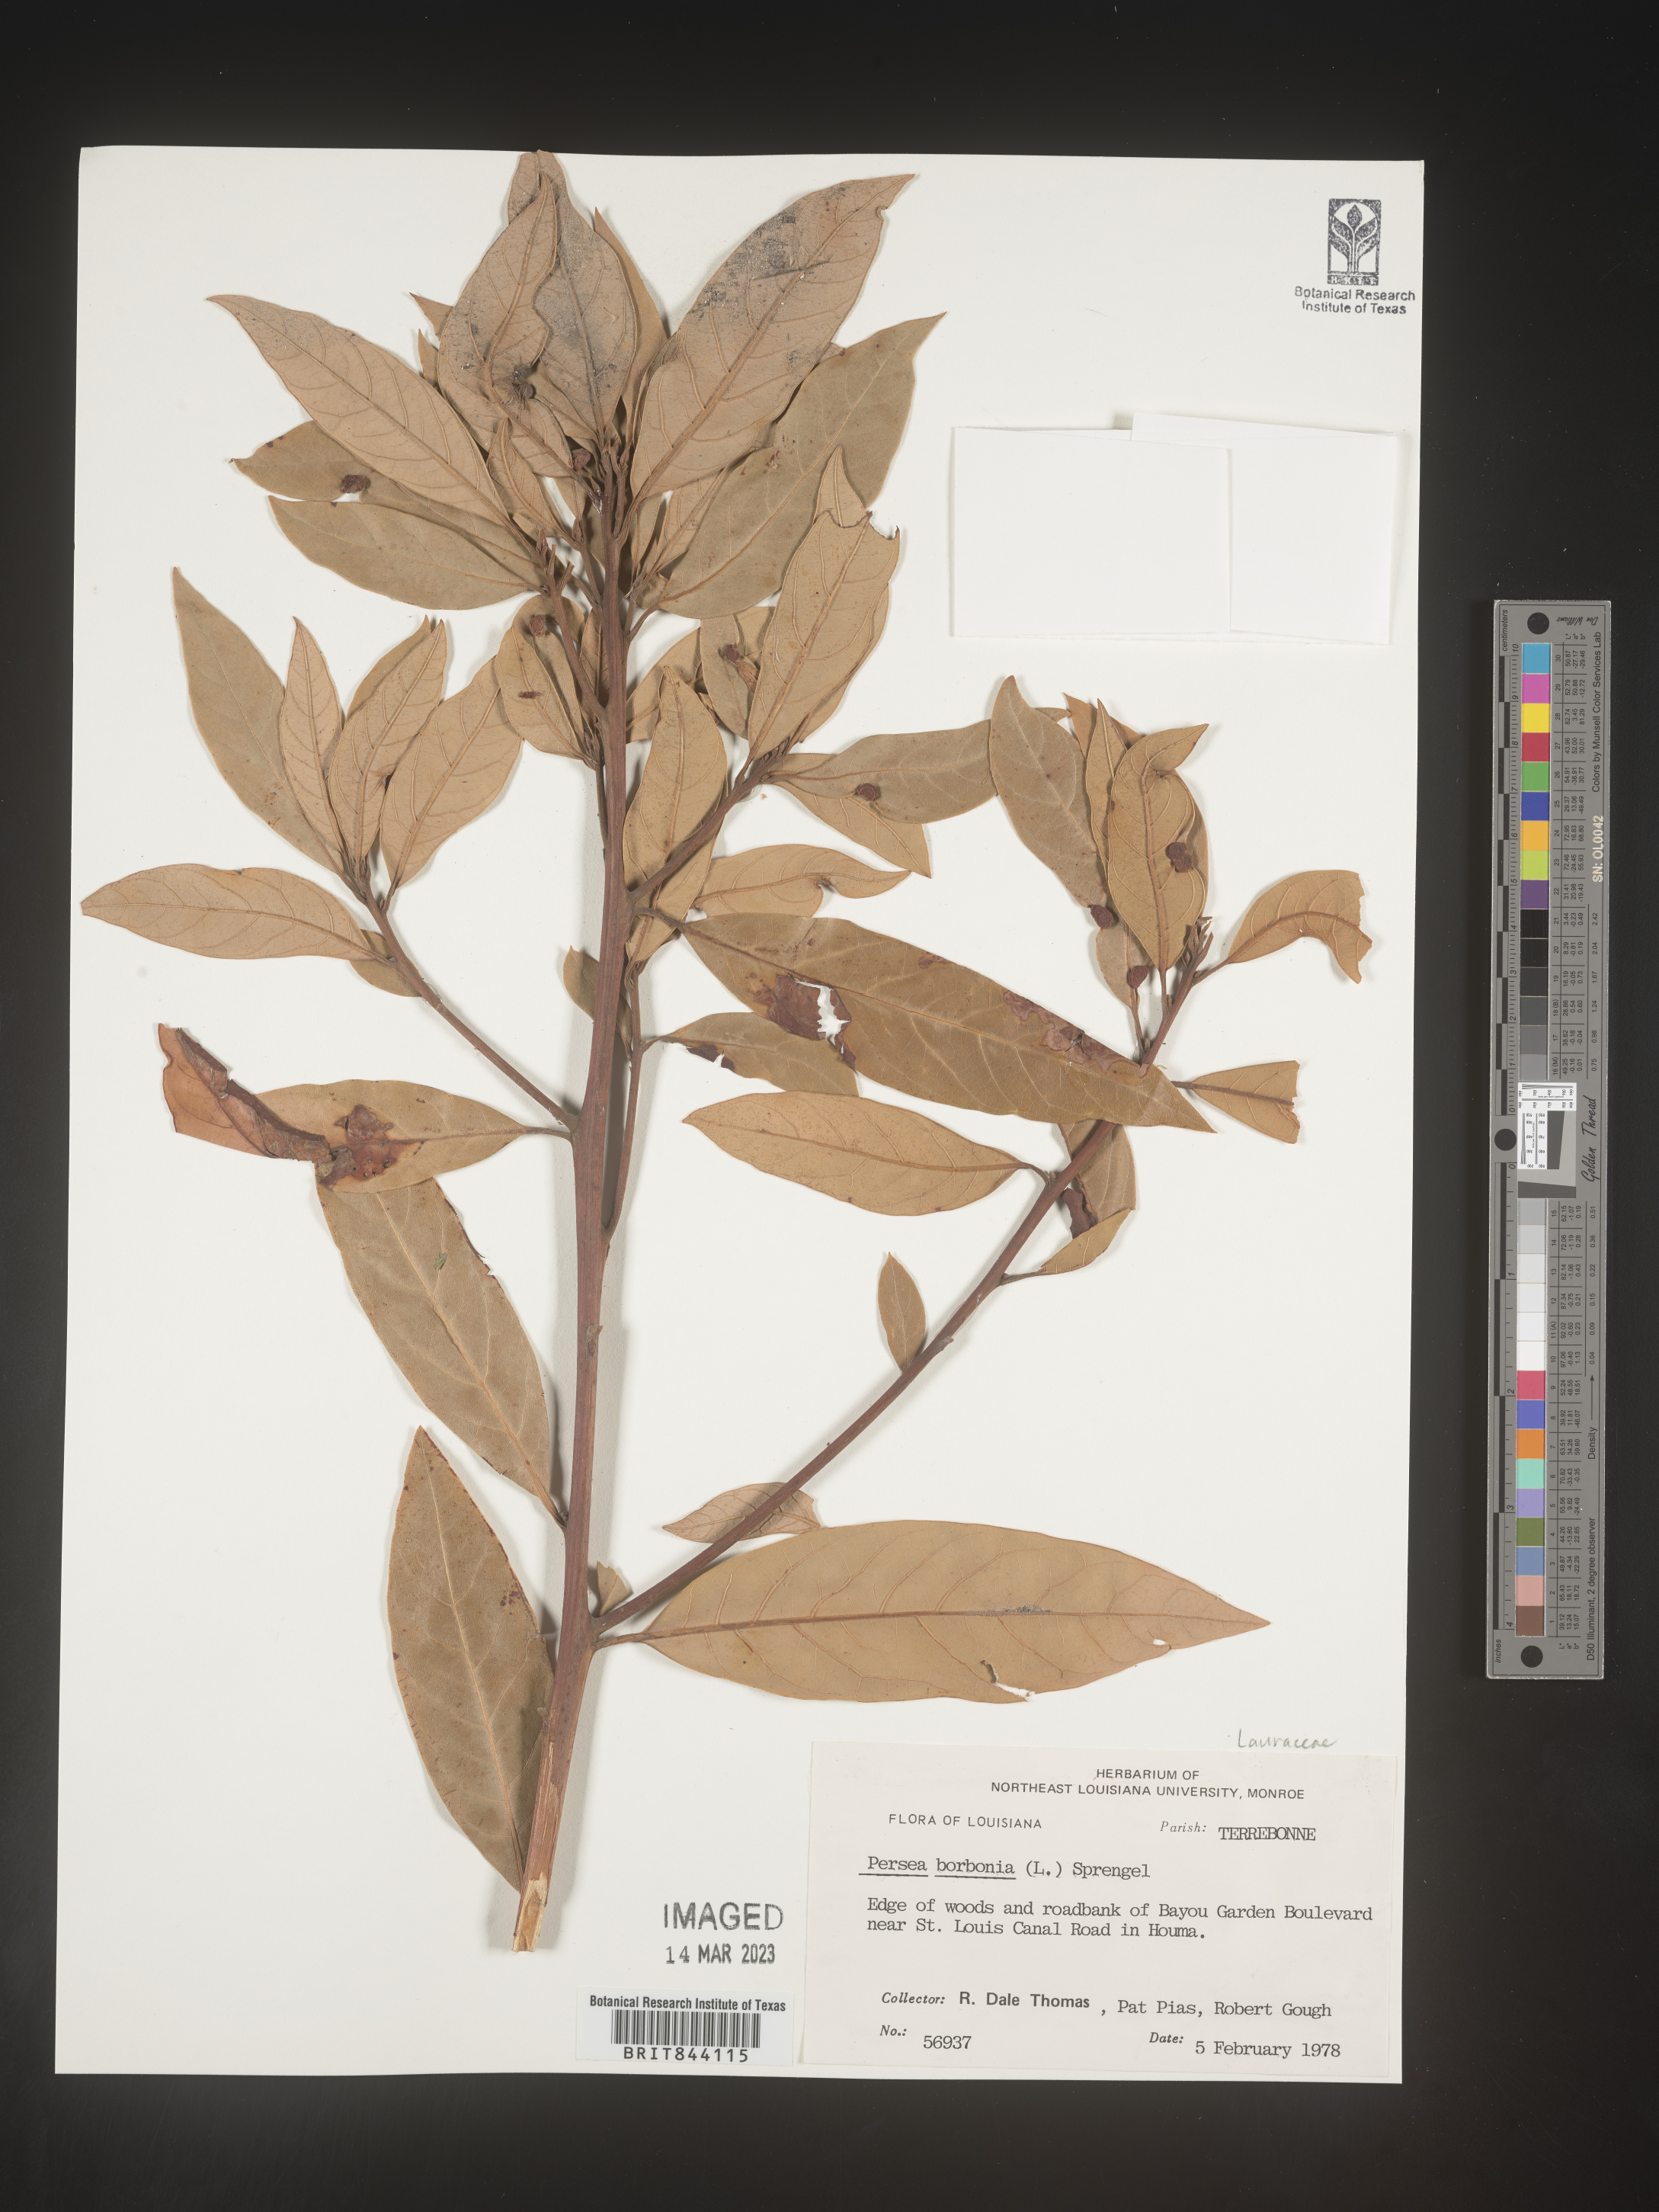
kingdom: Plantae
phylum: Tracheophyta
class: Magnoliopsida
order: Laurales
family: Lauraceae
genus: Persea
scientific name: Persea borbonia
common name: Redbay
